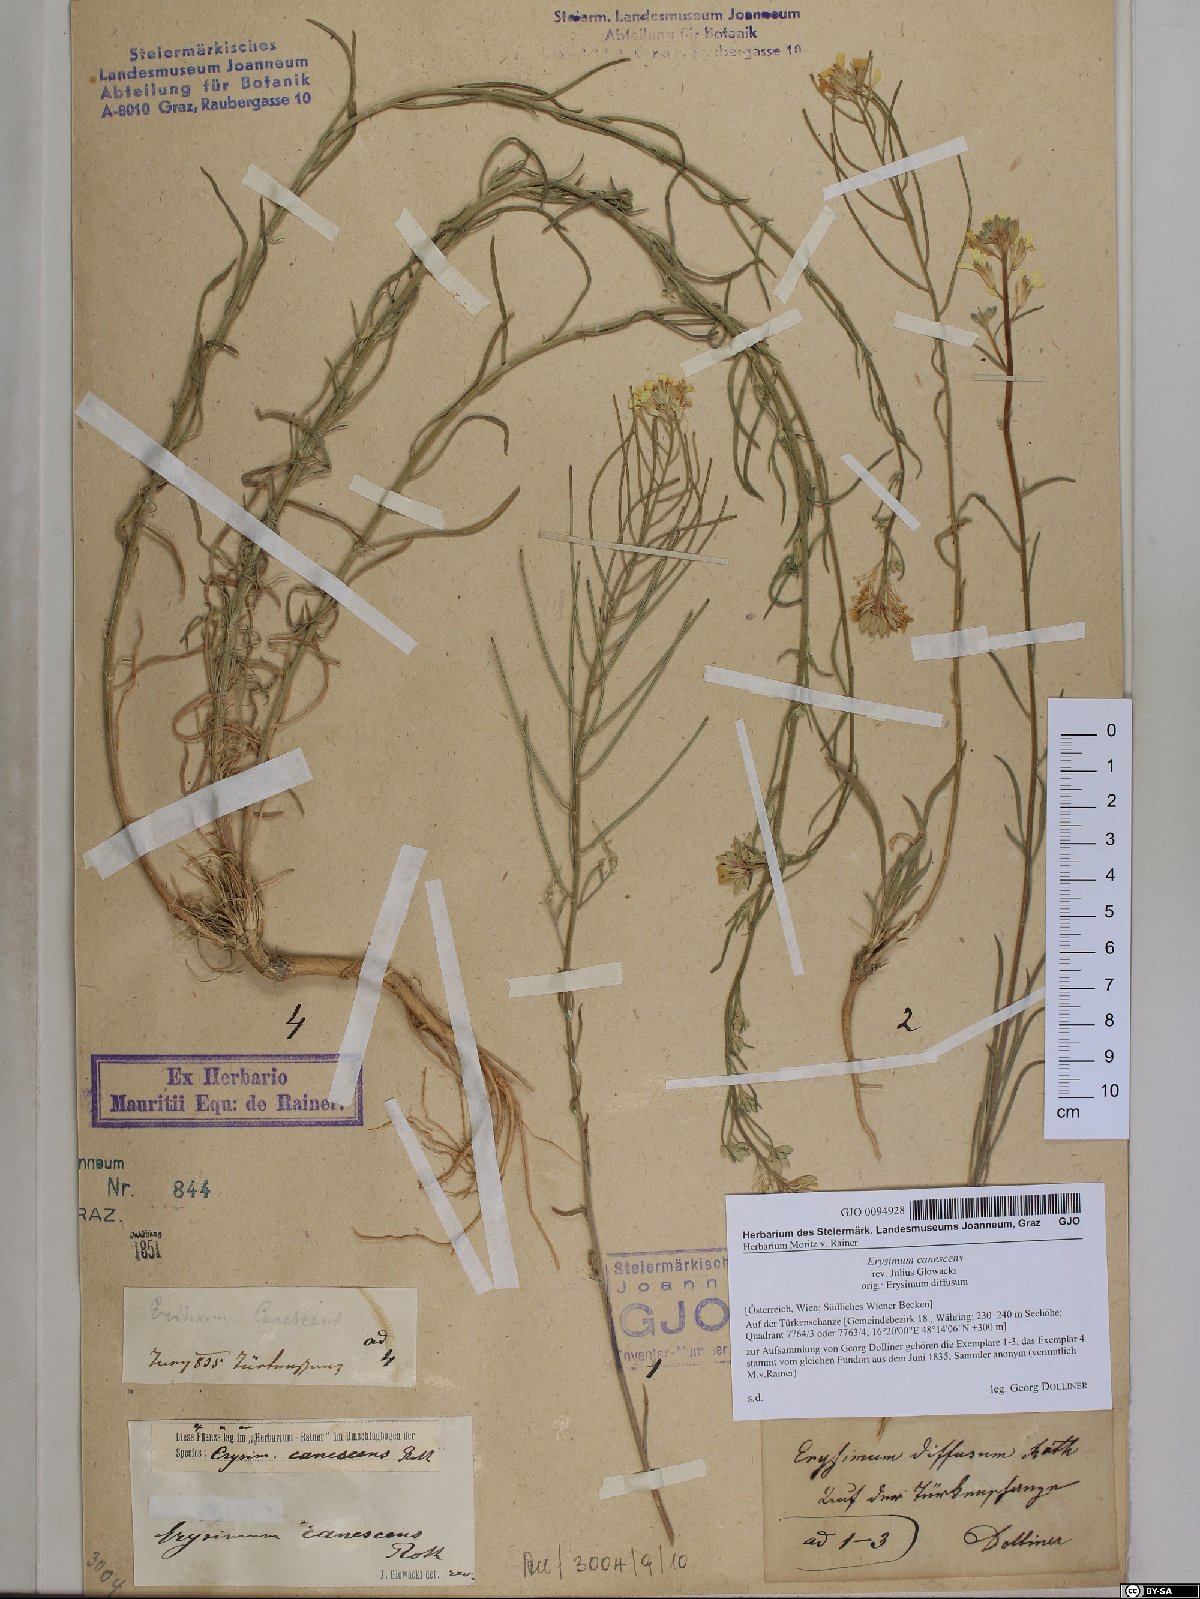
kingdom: Plantae
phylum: Tracheophyta
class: Magnoliopsida
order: Brassicales
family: Brassicaceae
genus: Erysimum
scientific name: Erysimum canescens
